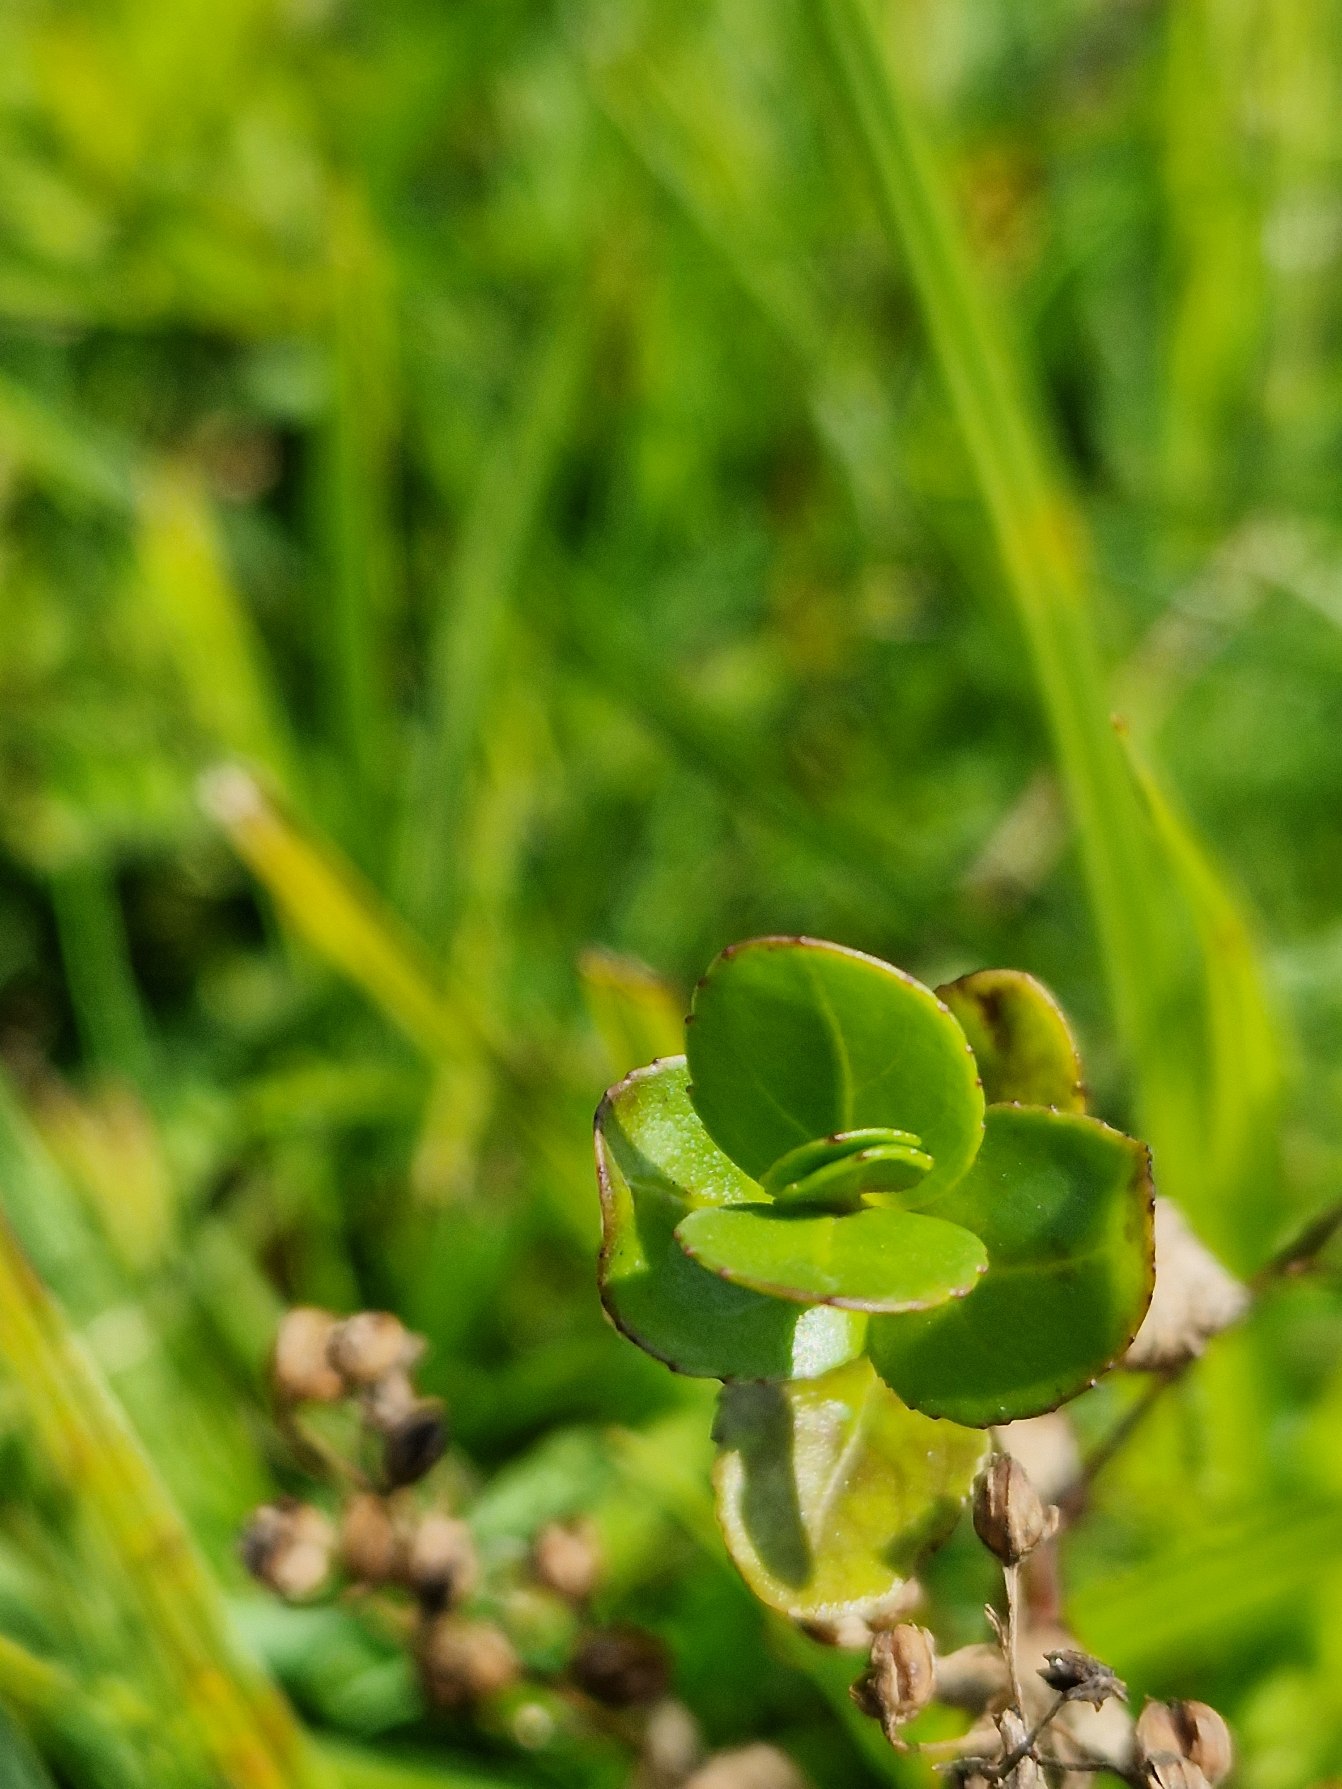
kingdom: Plantae
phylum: Tracheophyta
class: Magnoliopsida
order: Lamiales
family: Plantaginaceae
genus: Veronica
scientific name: Veronica beccabunga
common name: Tykbladet ærenpris
